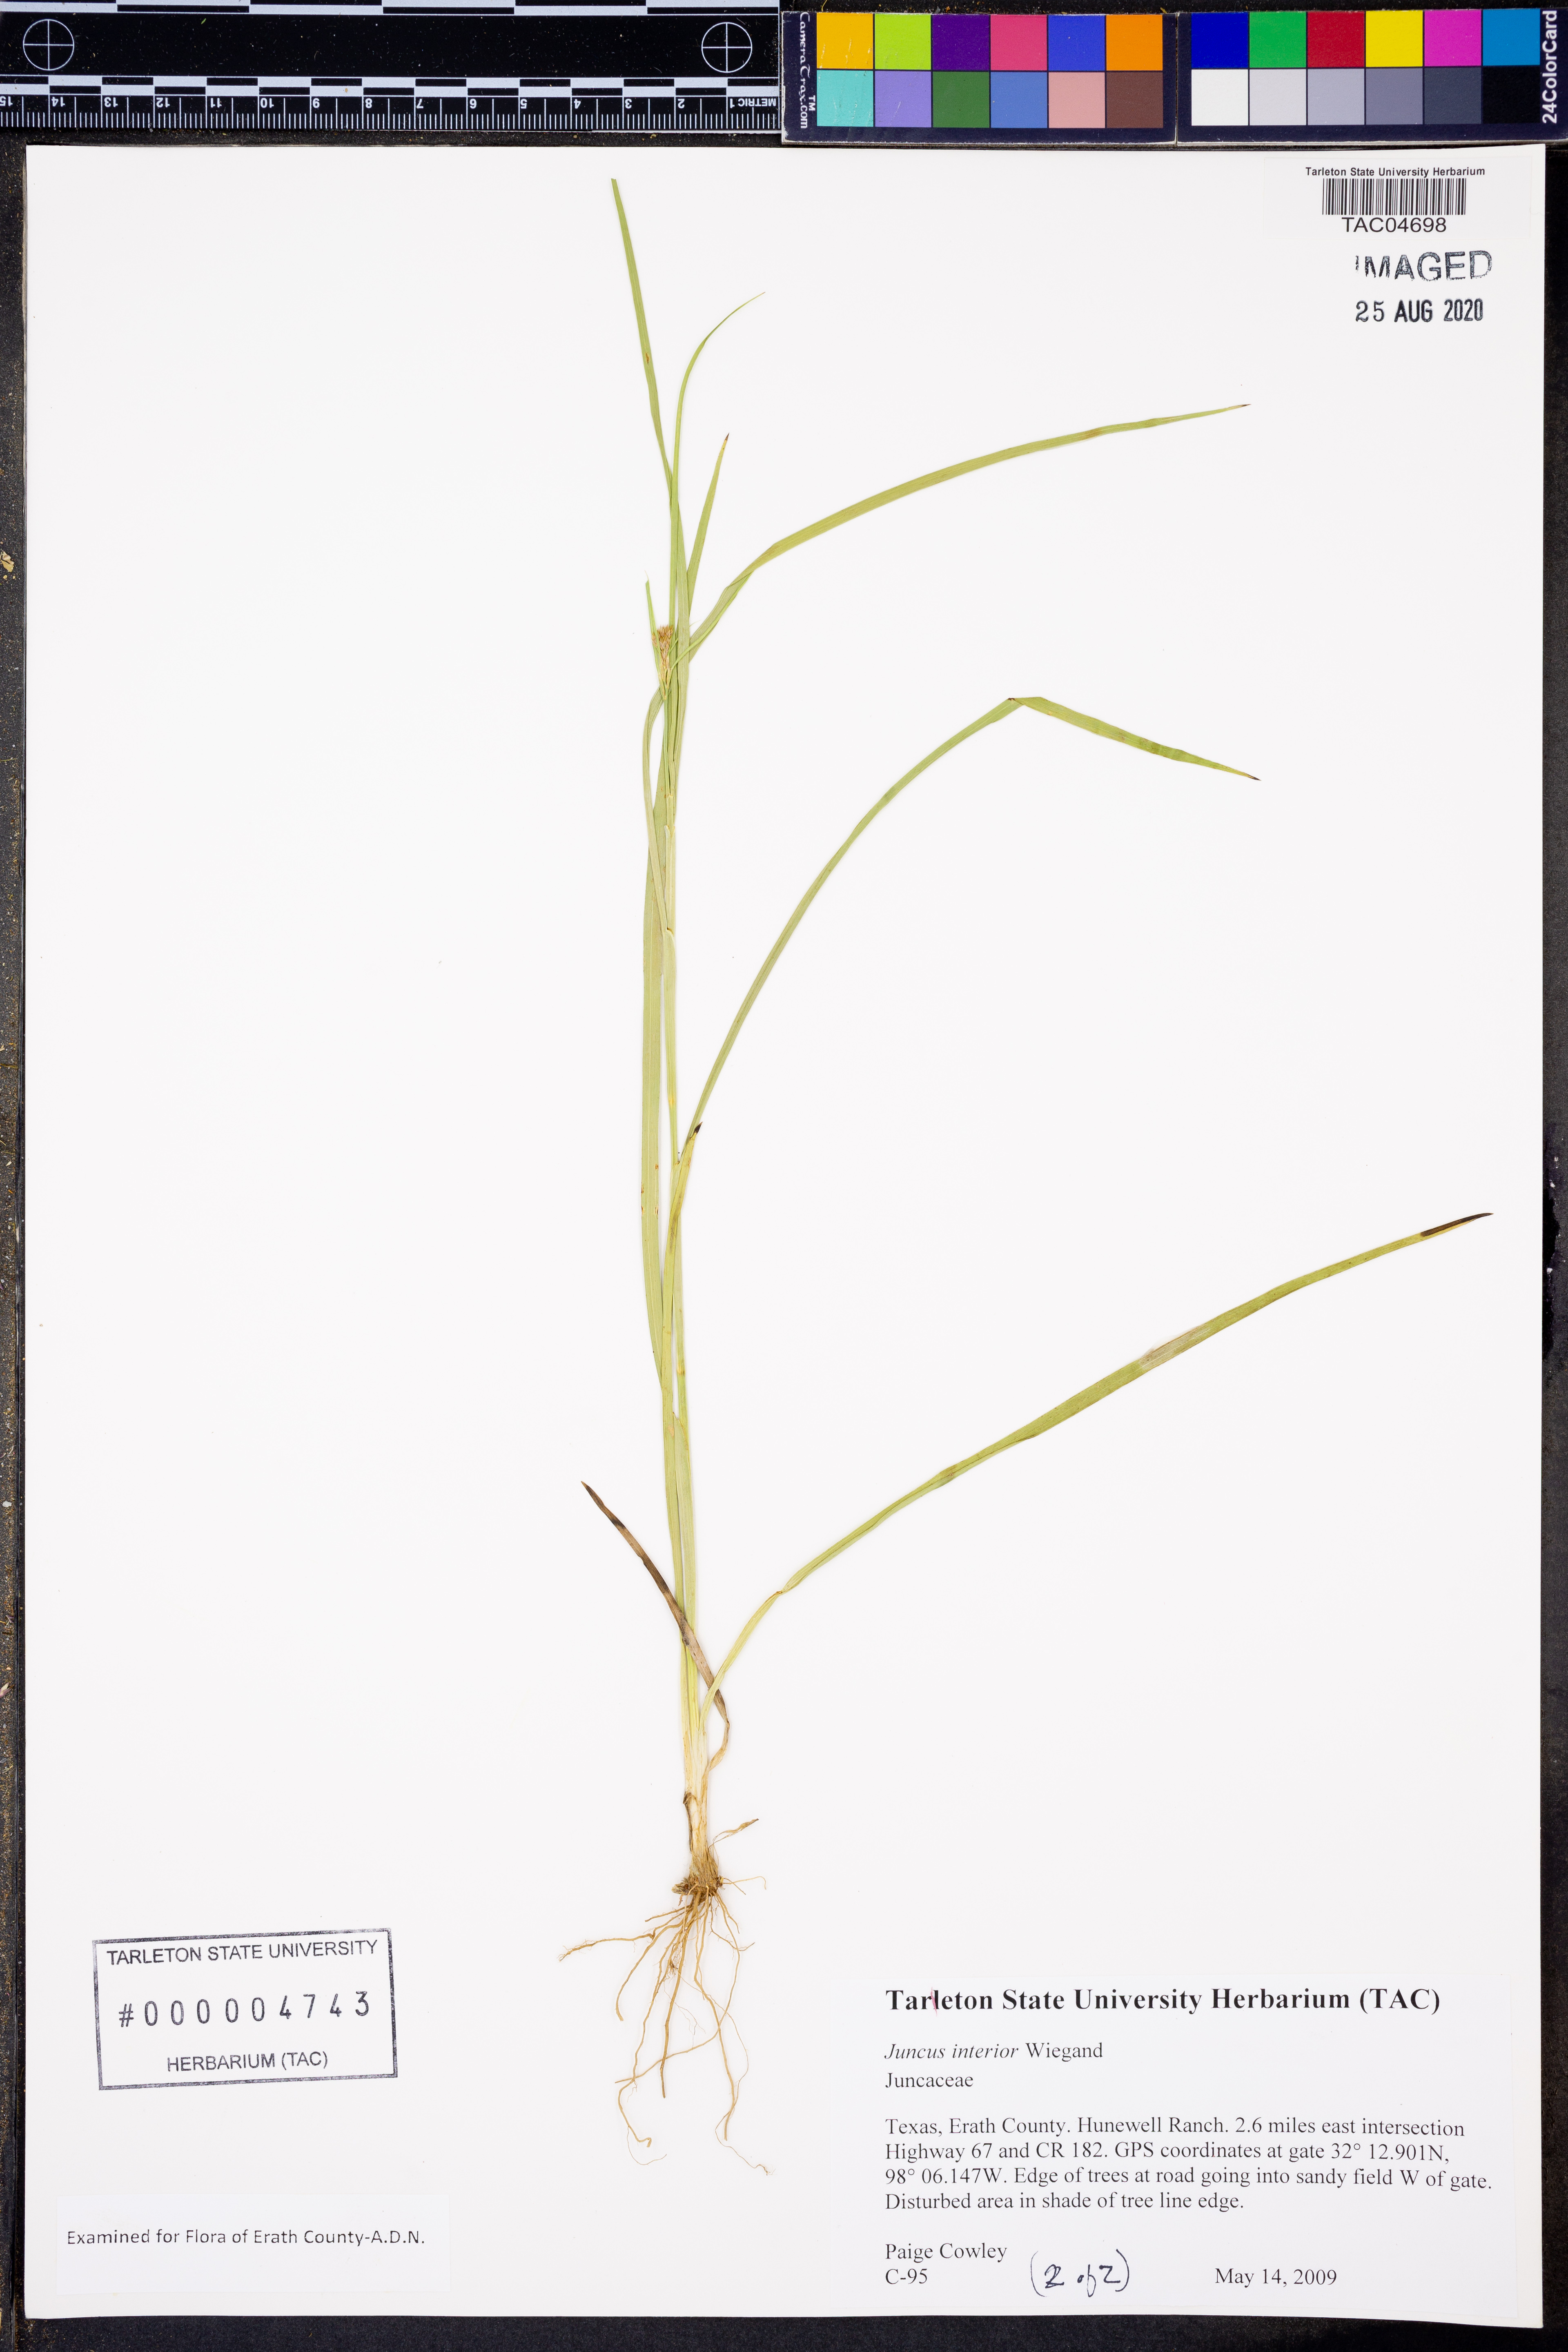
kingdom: Plantae
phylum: Tracheophyta
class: Liliopsida
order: Poales
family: Juncaceae
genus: Juncus
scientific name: Juncus interior
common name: Interior rush
